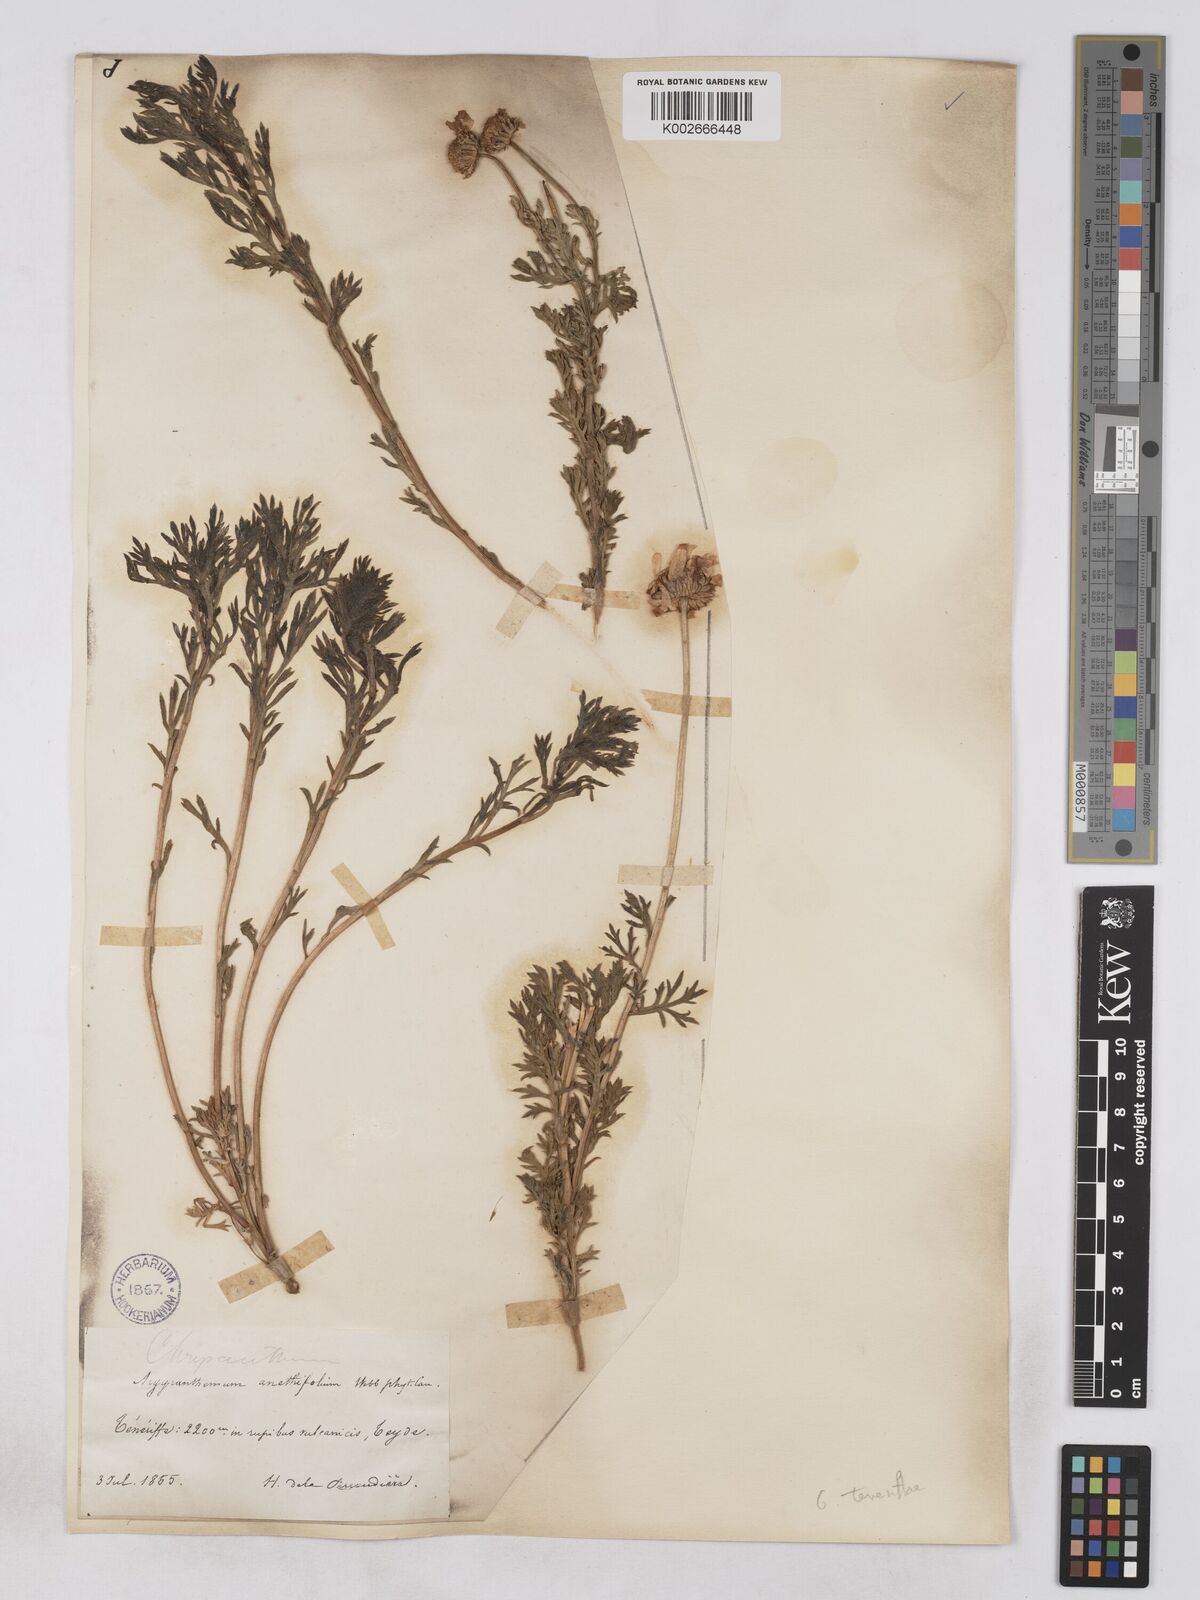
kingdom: Plantae
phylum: Tracheophyta
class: Magnoliopsida
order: Asterales
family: Asteraceae
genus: Argyranthemum
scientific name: Argyranthemum tenerifae
